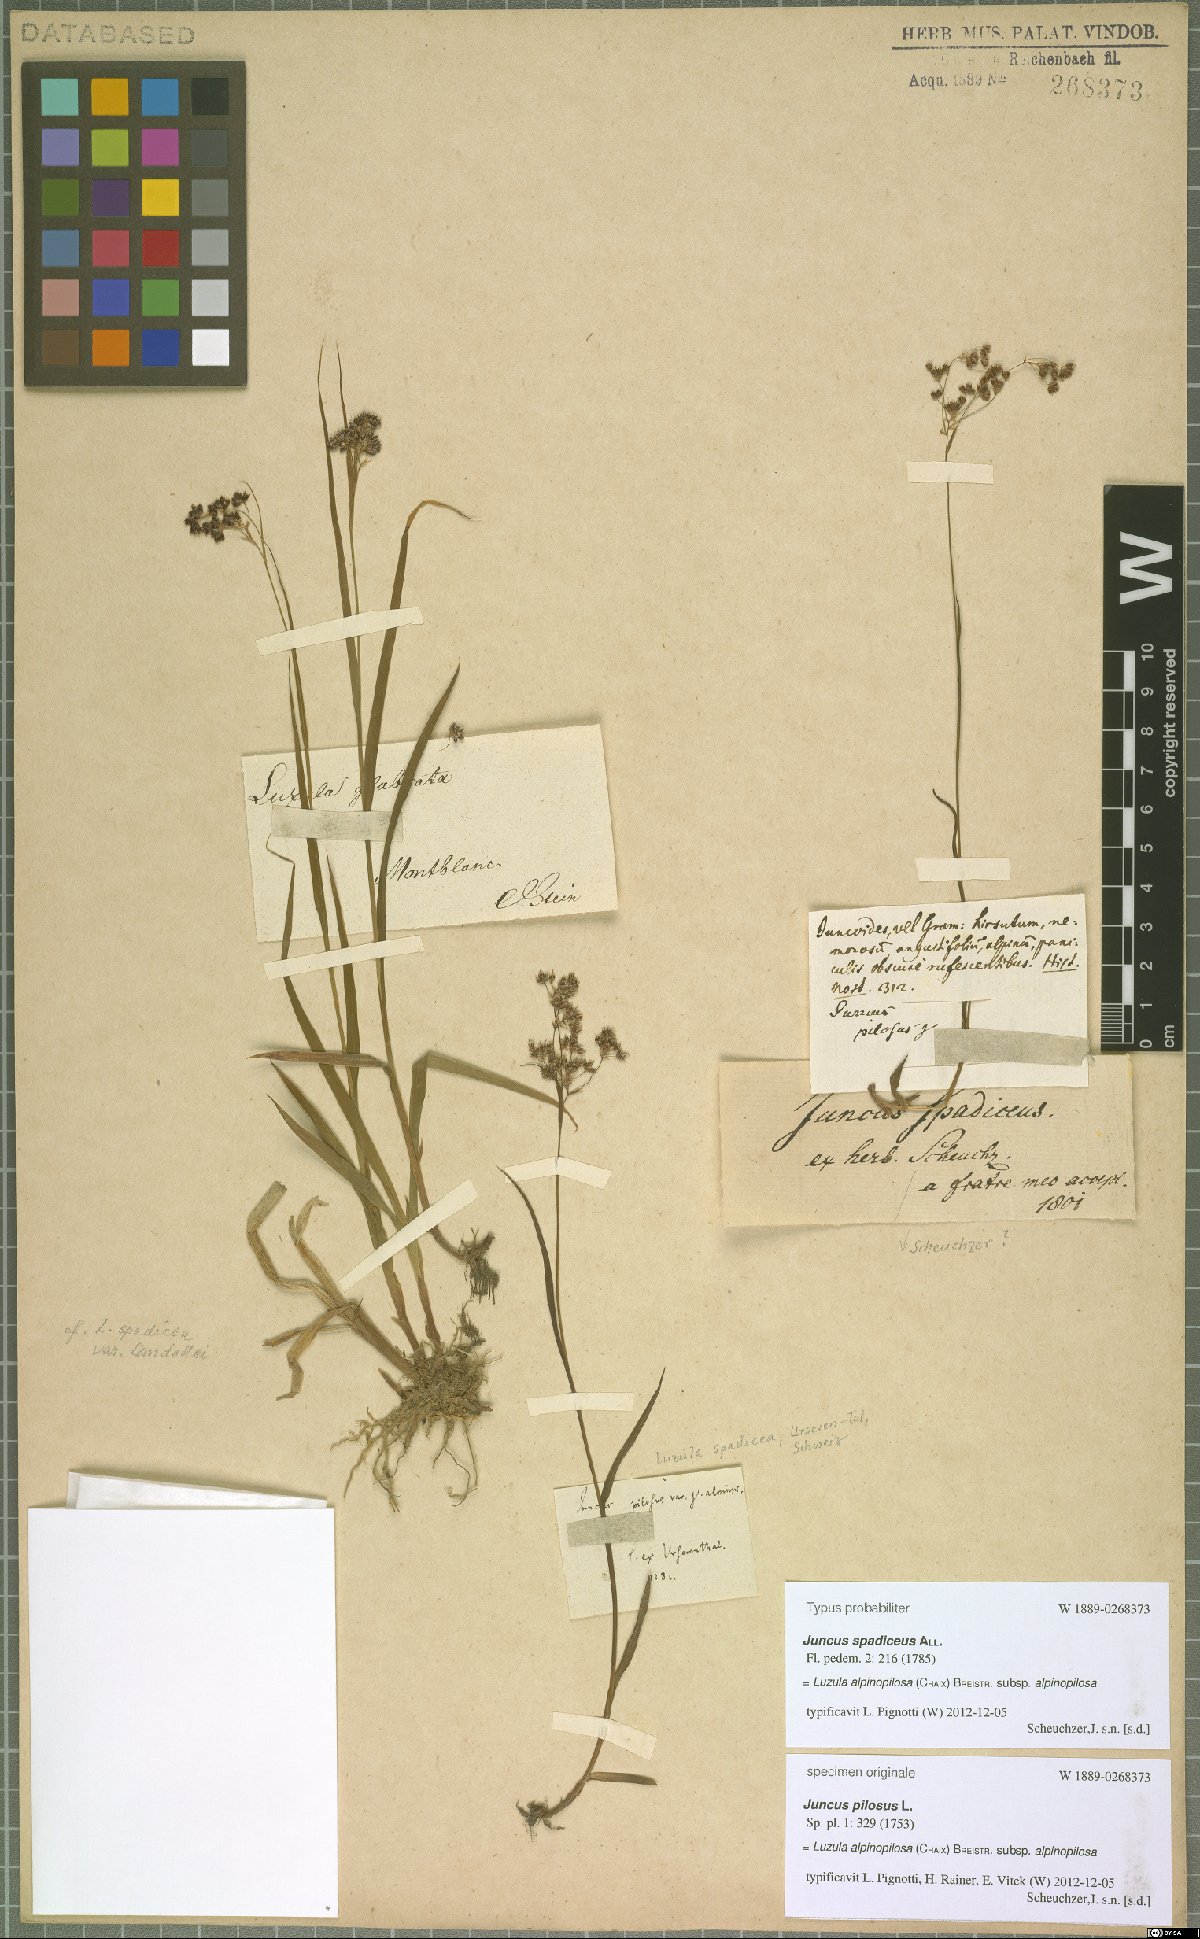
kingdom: Plantae
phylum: Tracheophyta
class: Liliopsida
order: Poales
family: Juncaceae
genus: Luzula
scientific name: Luzula alpinopilosa
